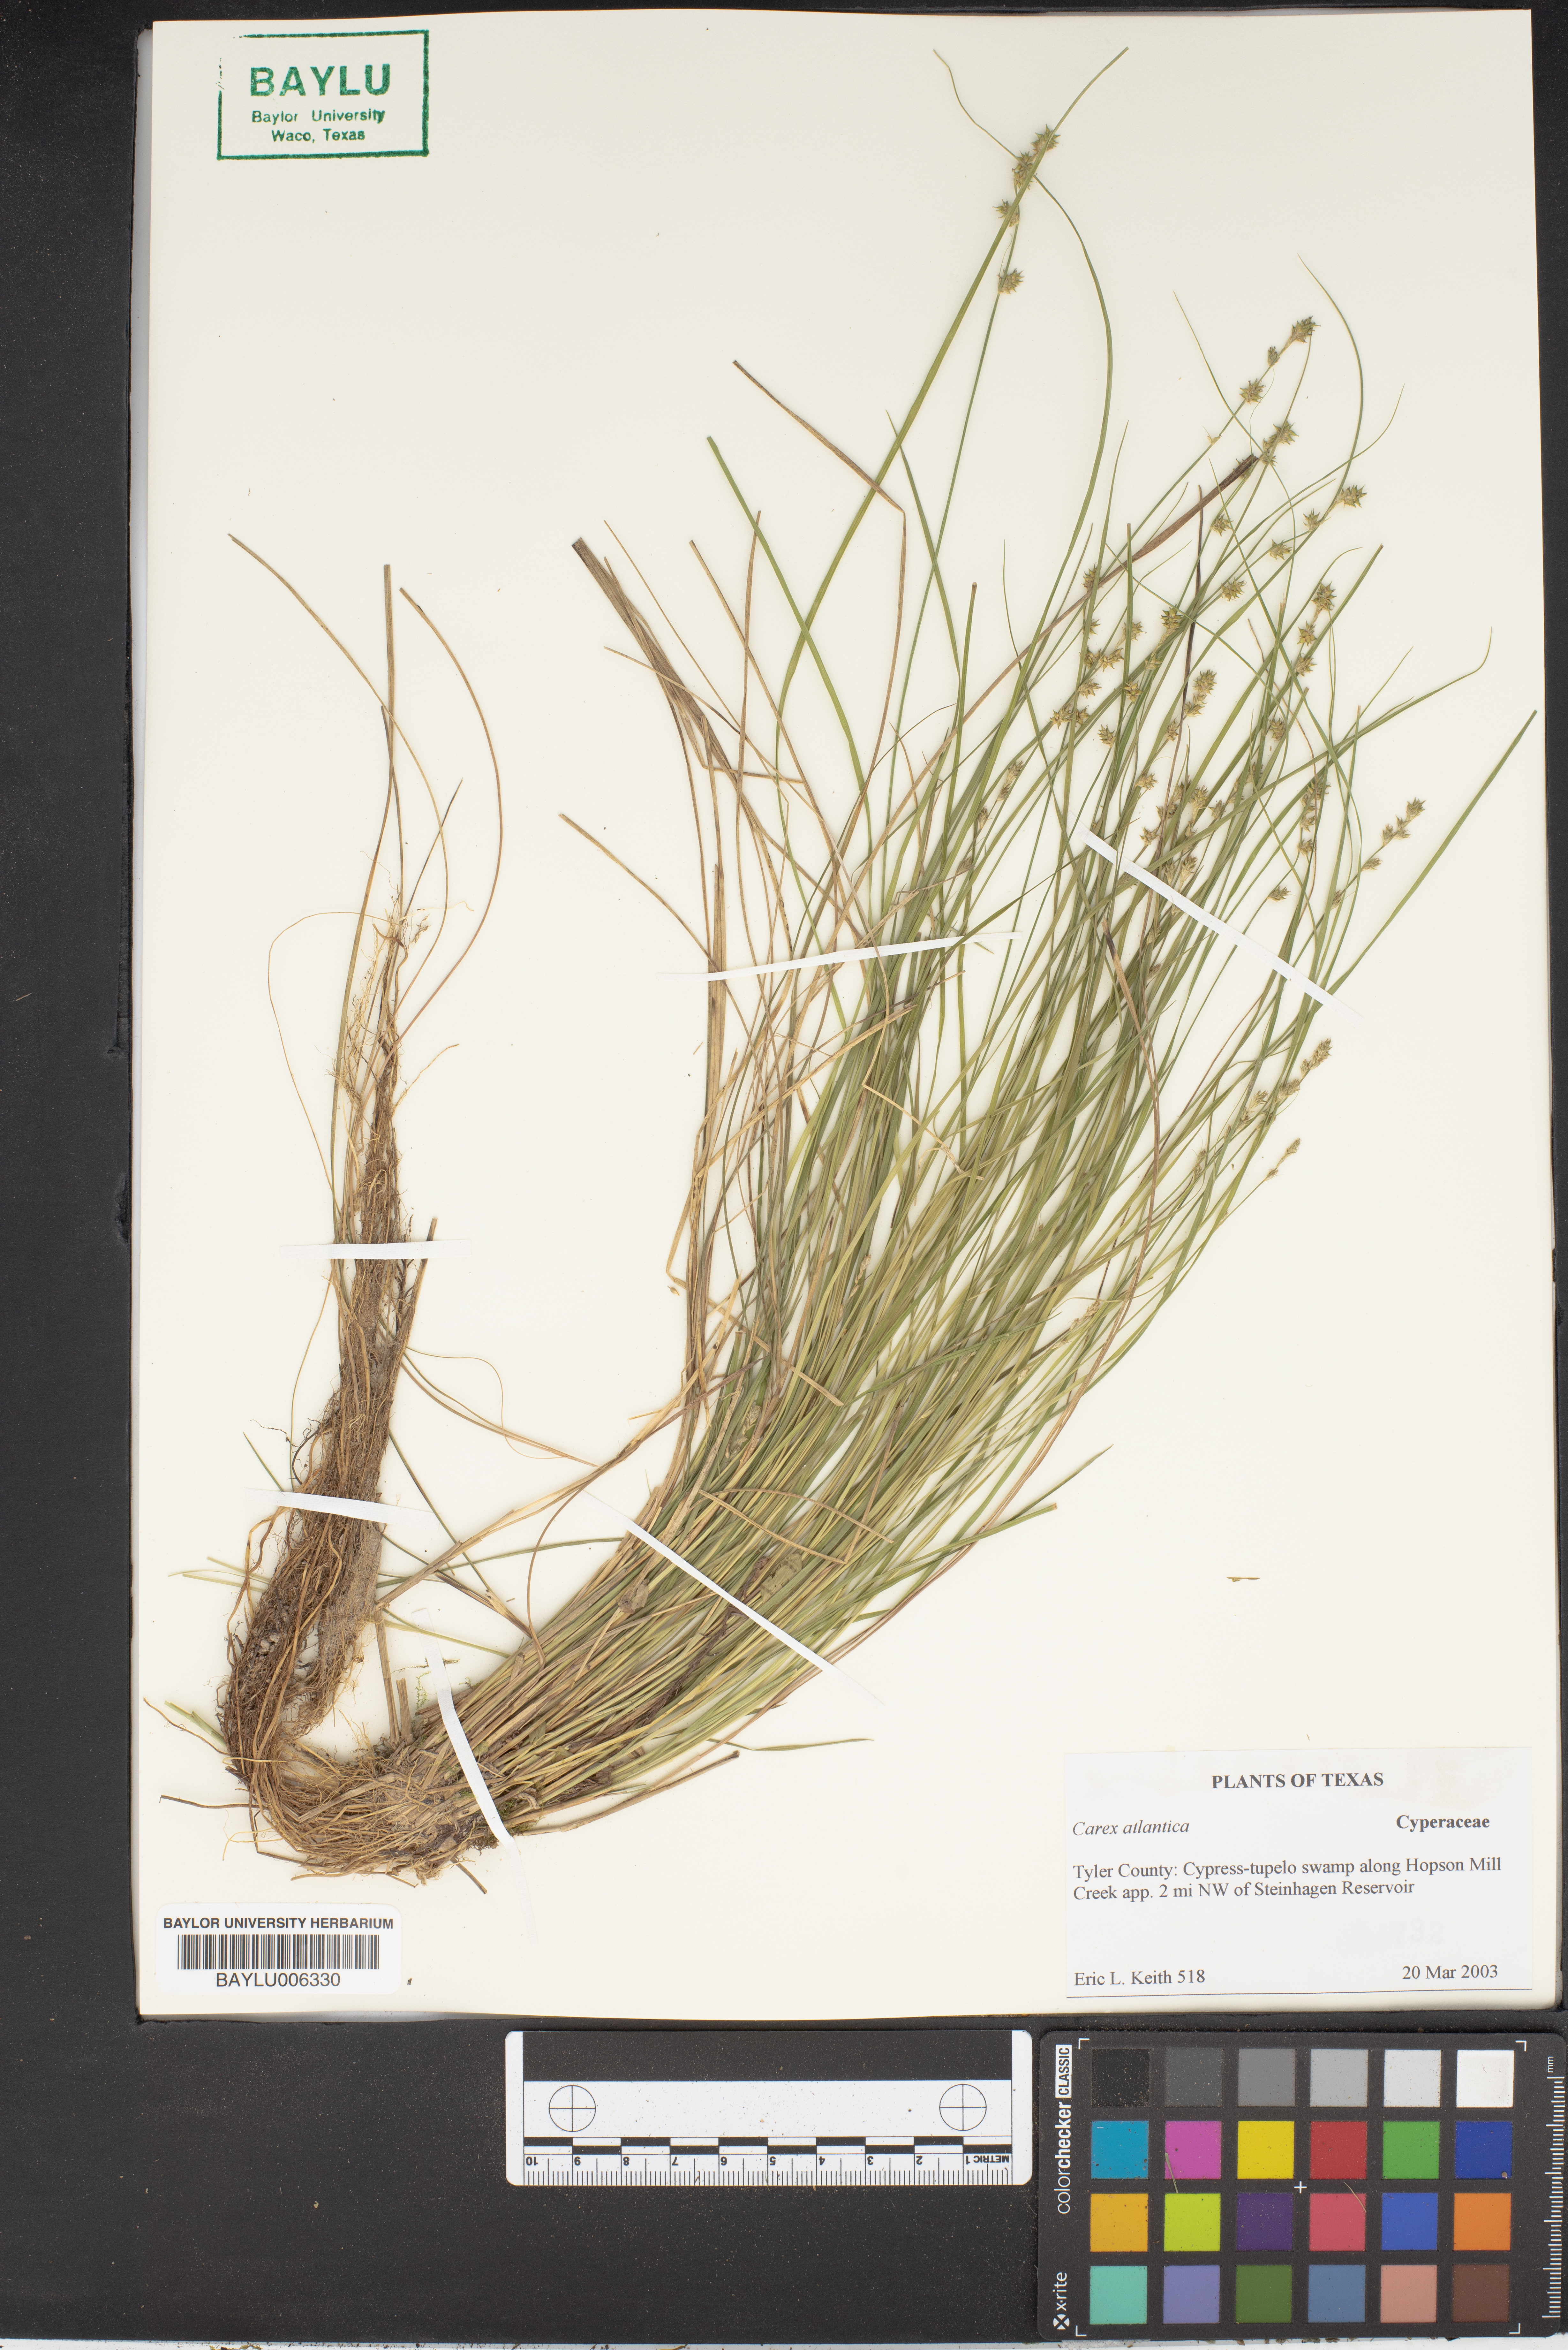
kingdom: Plantae
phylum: Tracheophyta
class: Liliopsida
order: Poales
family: Cyperaceae
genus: Carex
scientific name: Carex
